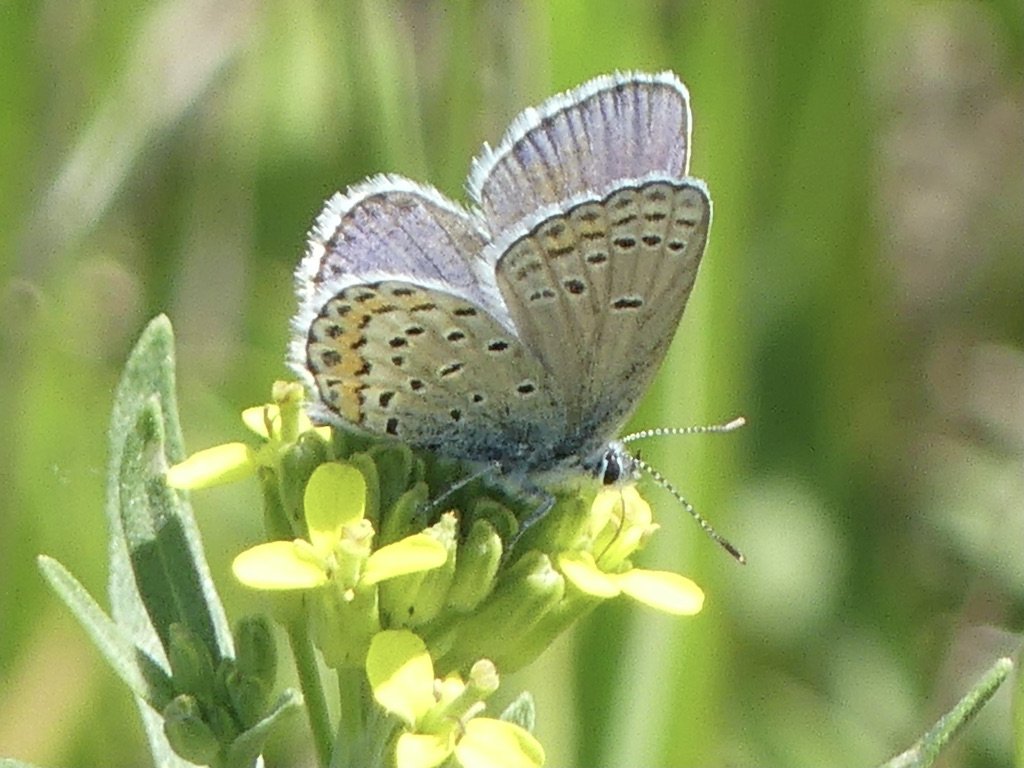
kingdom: Animalia
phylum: Arthropoda
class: Insecta
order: Lepidoptera
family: Lycaenidae
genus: Lycaeides
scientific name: Lycaeides melissa
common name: Melissa Blue
